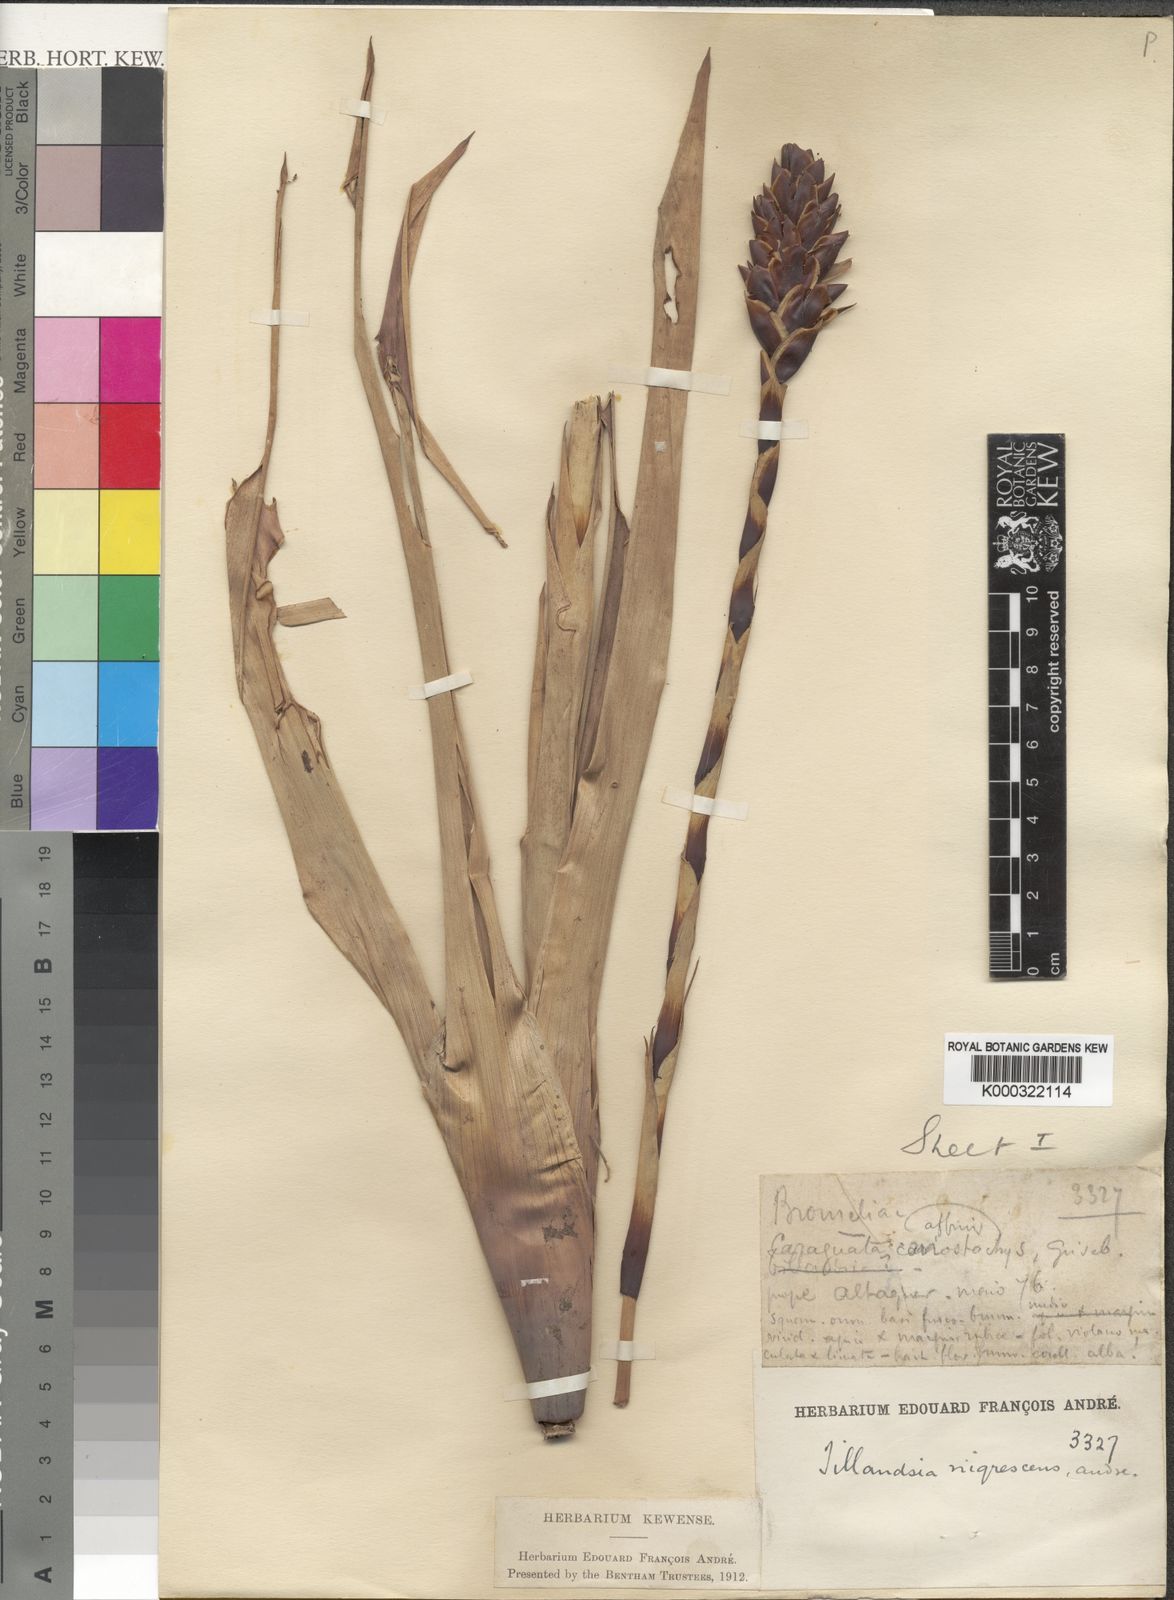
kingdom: Plantae
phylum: Tracheophyta
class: Liliopsida
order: Poales
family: Bromeliaceae
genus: Guzmania
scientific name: Guzmania coriostachya
